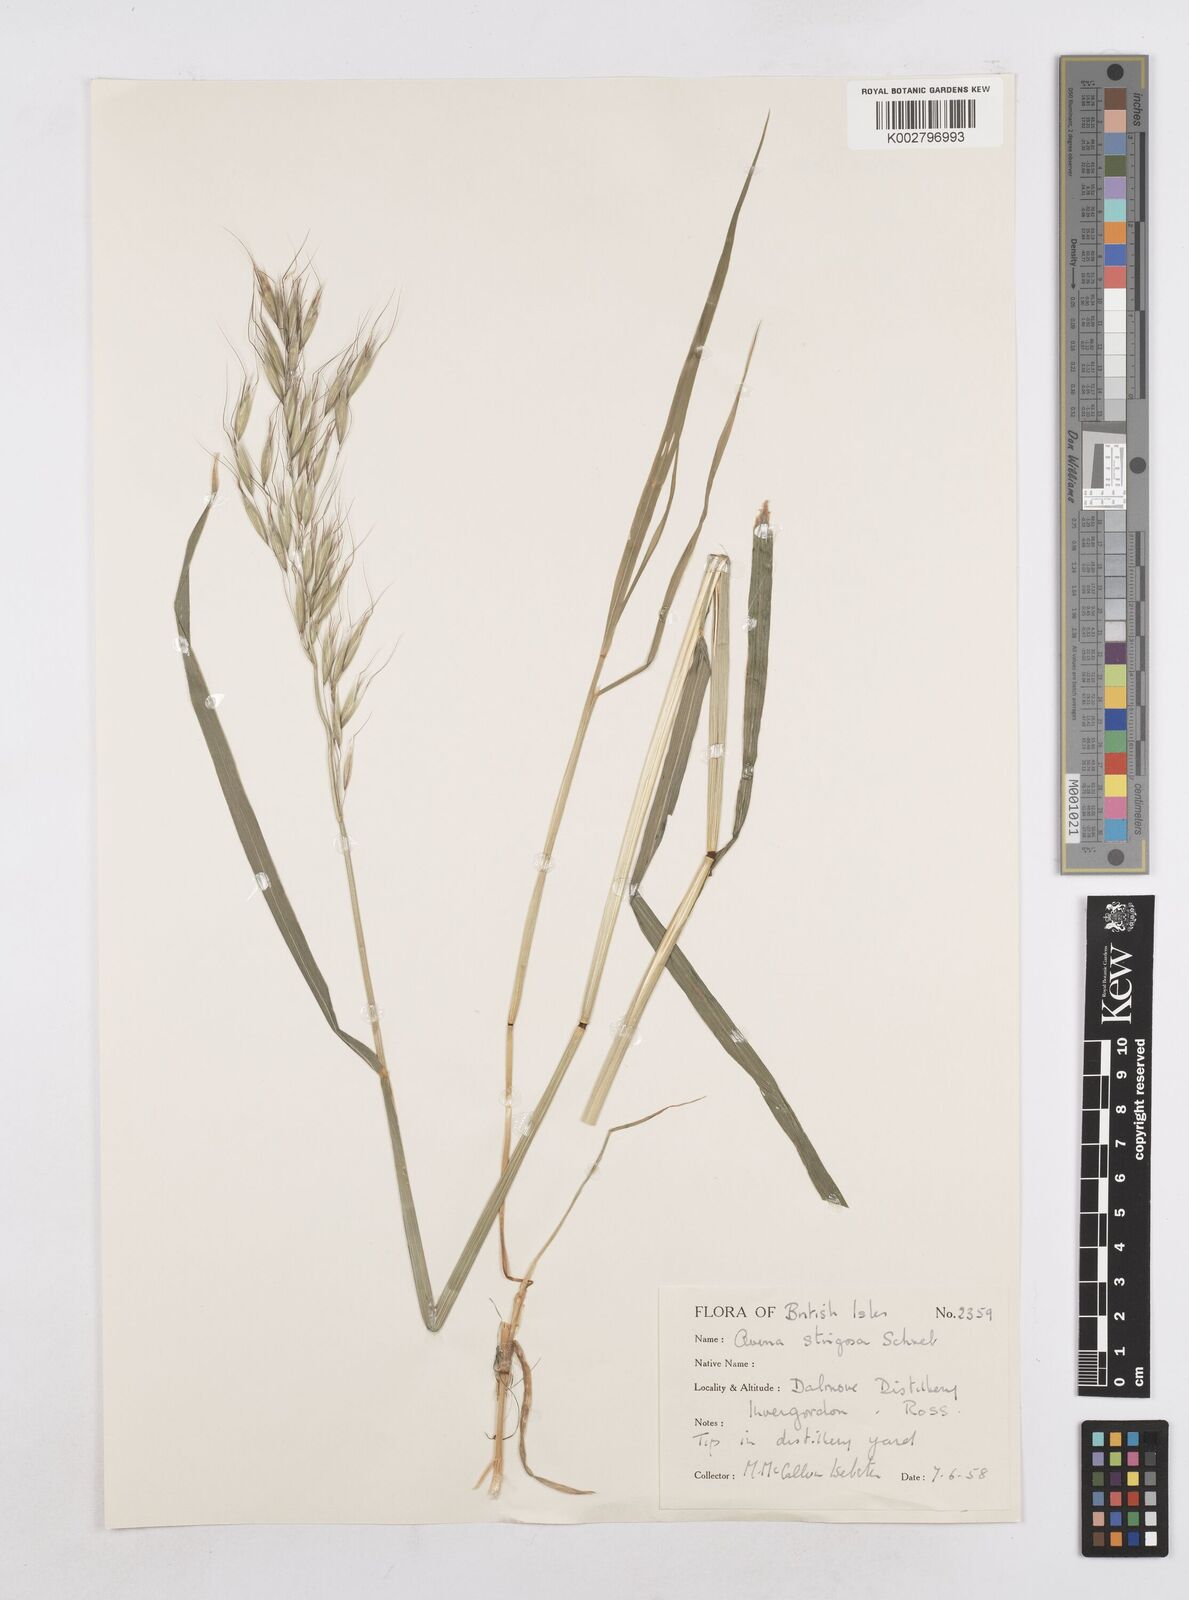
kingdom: Plantae
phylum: Tracheophyta
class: Liliopsida
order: Poales
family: Poaceae
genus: Avena
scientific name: Avena strigosa
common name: Bristle oat
